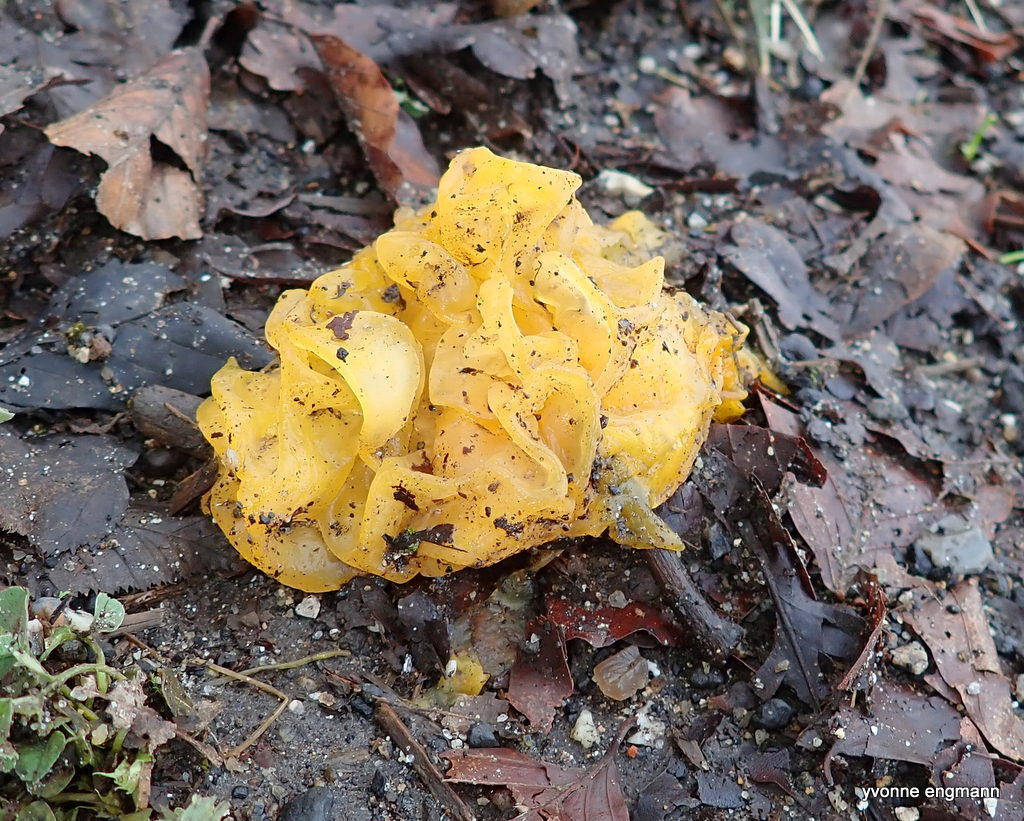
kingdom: Fungi
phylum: Basidiomycota
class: Tremellomycetes
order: Tremellales
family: Tremellaceae
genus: Tremella
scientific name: Tremella mesenterica
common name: gul bævresvamp
